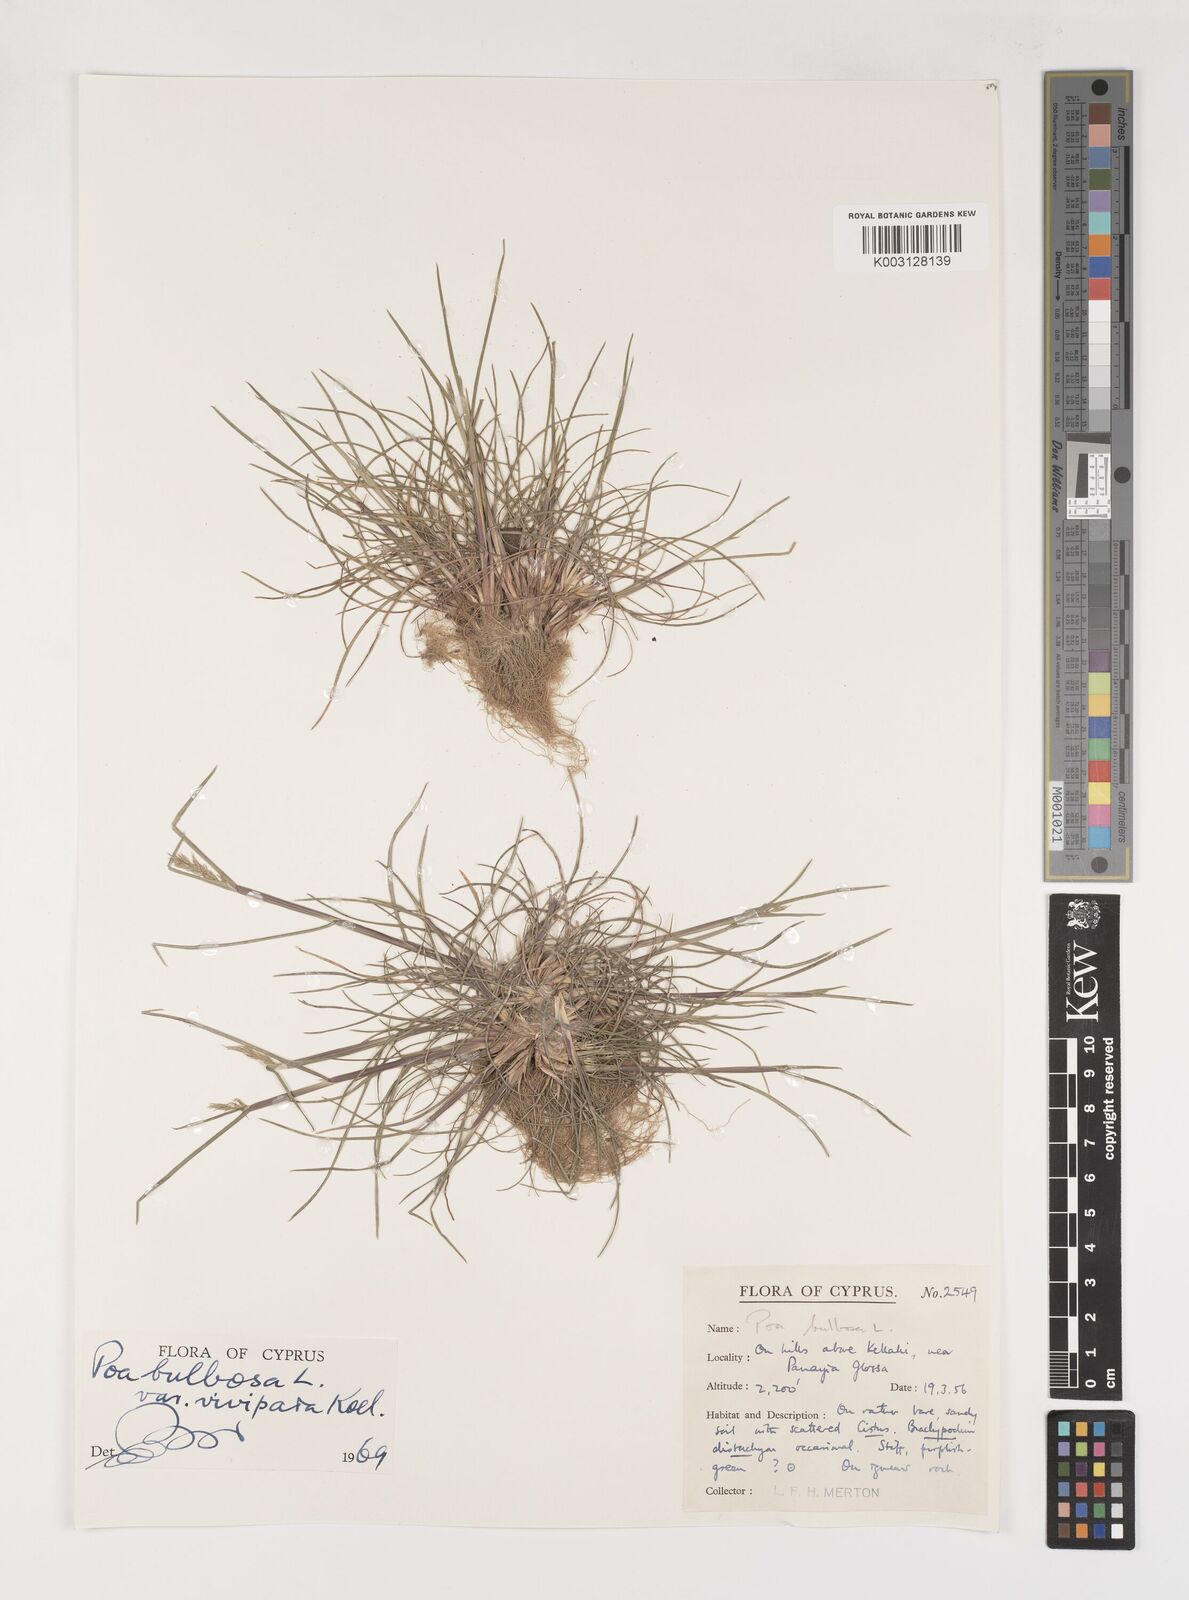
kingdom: Plantae
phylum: Tracheophyta
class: Liliopsida
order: Poales
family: Poaceae
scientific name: Poaceae
